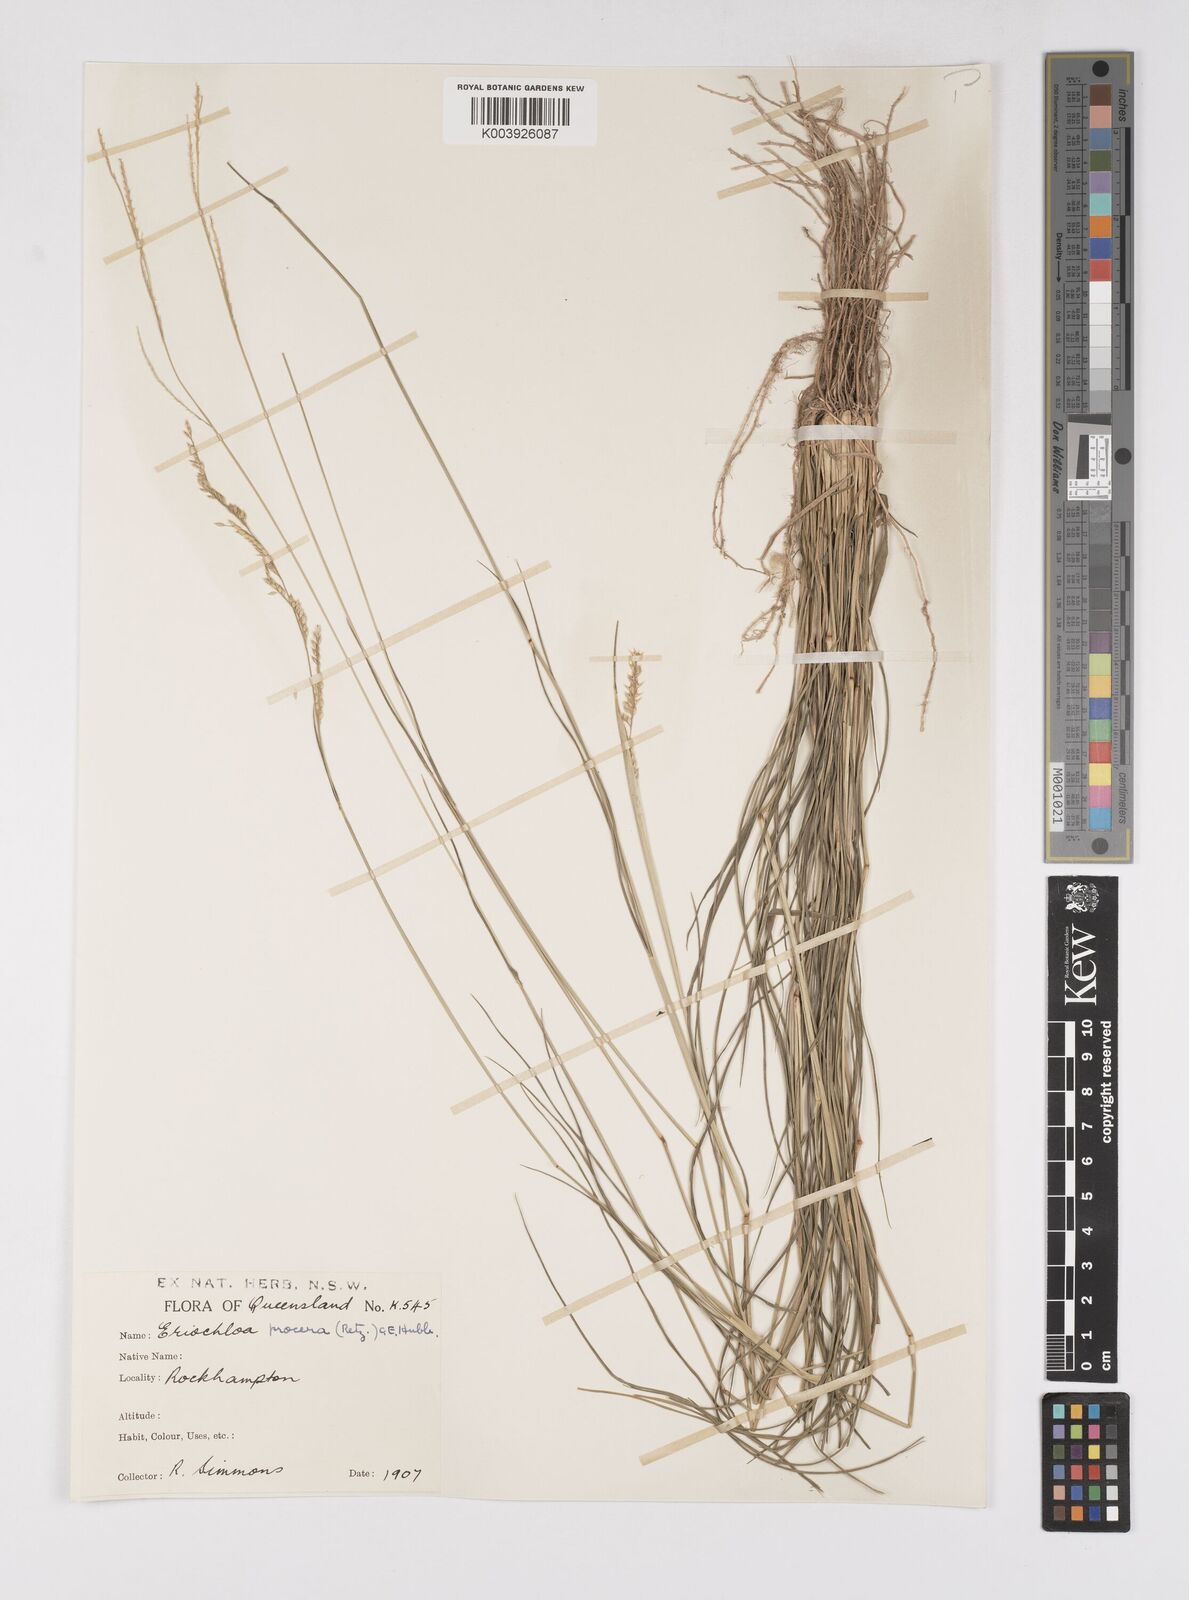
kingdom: Plantae
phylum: Tracheophyta
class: Liliopsida
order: Poales
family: Poaceae
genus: Eriochloa
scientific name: Eriochloa
